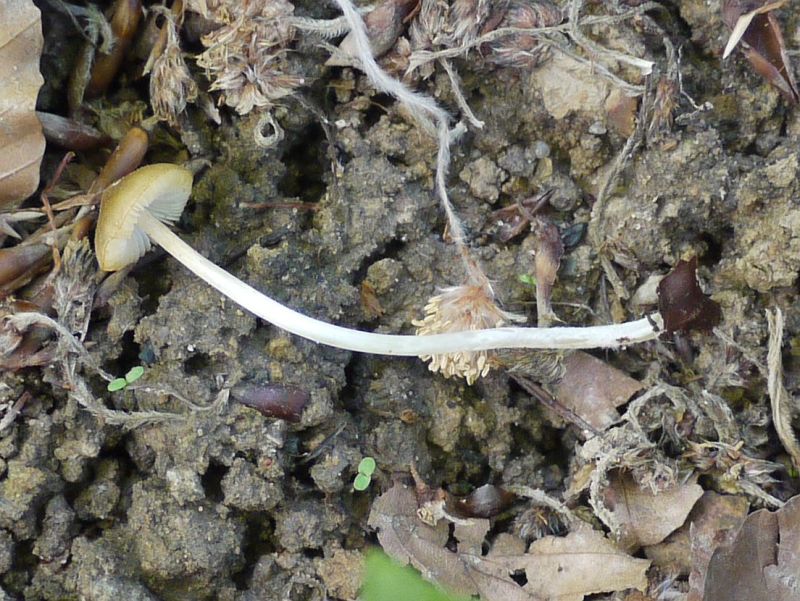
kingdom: Fungi
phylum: Basidiomycota
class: Agaricomycetes
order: Agaricales
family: Porotheleaceae
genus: Hydropodia
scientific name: Hydropodia subalpina
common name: vår-fnugfod
